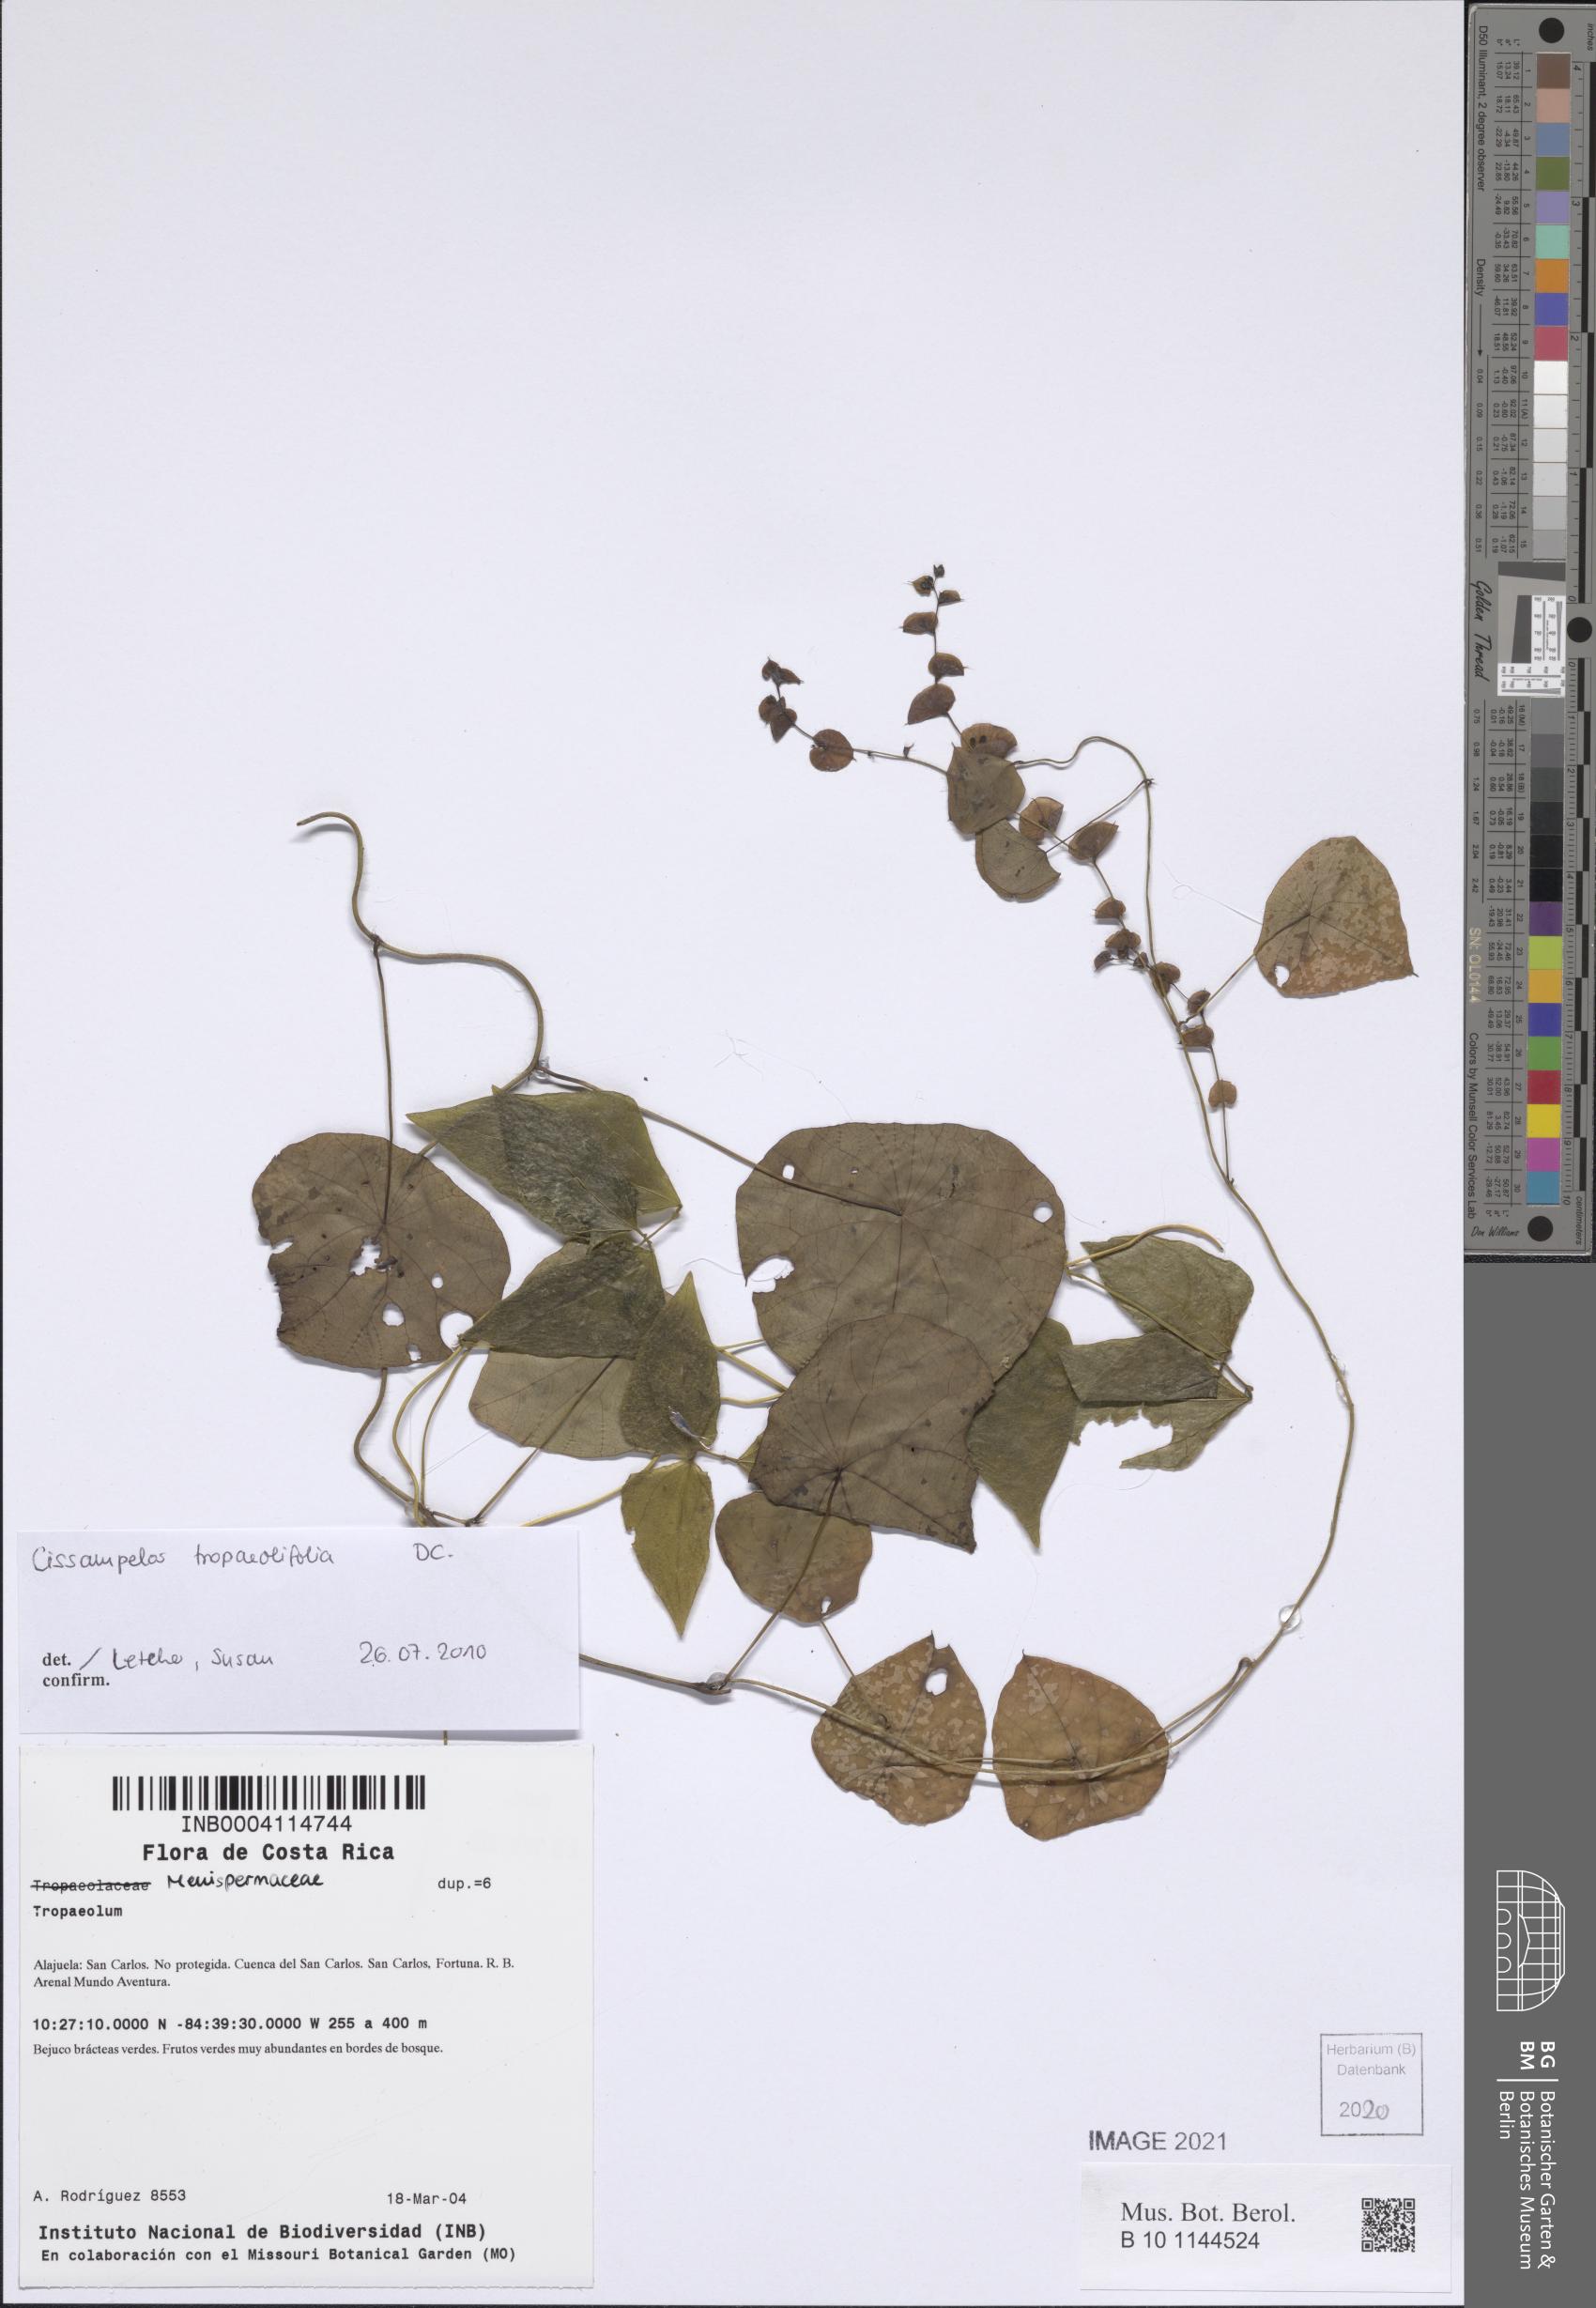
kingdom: Plantae
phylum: Tracheophyta
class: Magnoliopsida
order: Ranunculales
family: Menispermaceae
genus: Cissampelos
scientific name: Cissampelos tropaeolifolia
